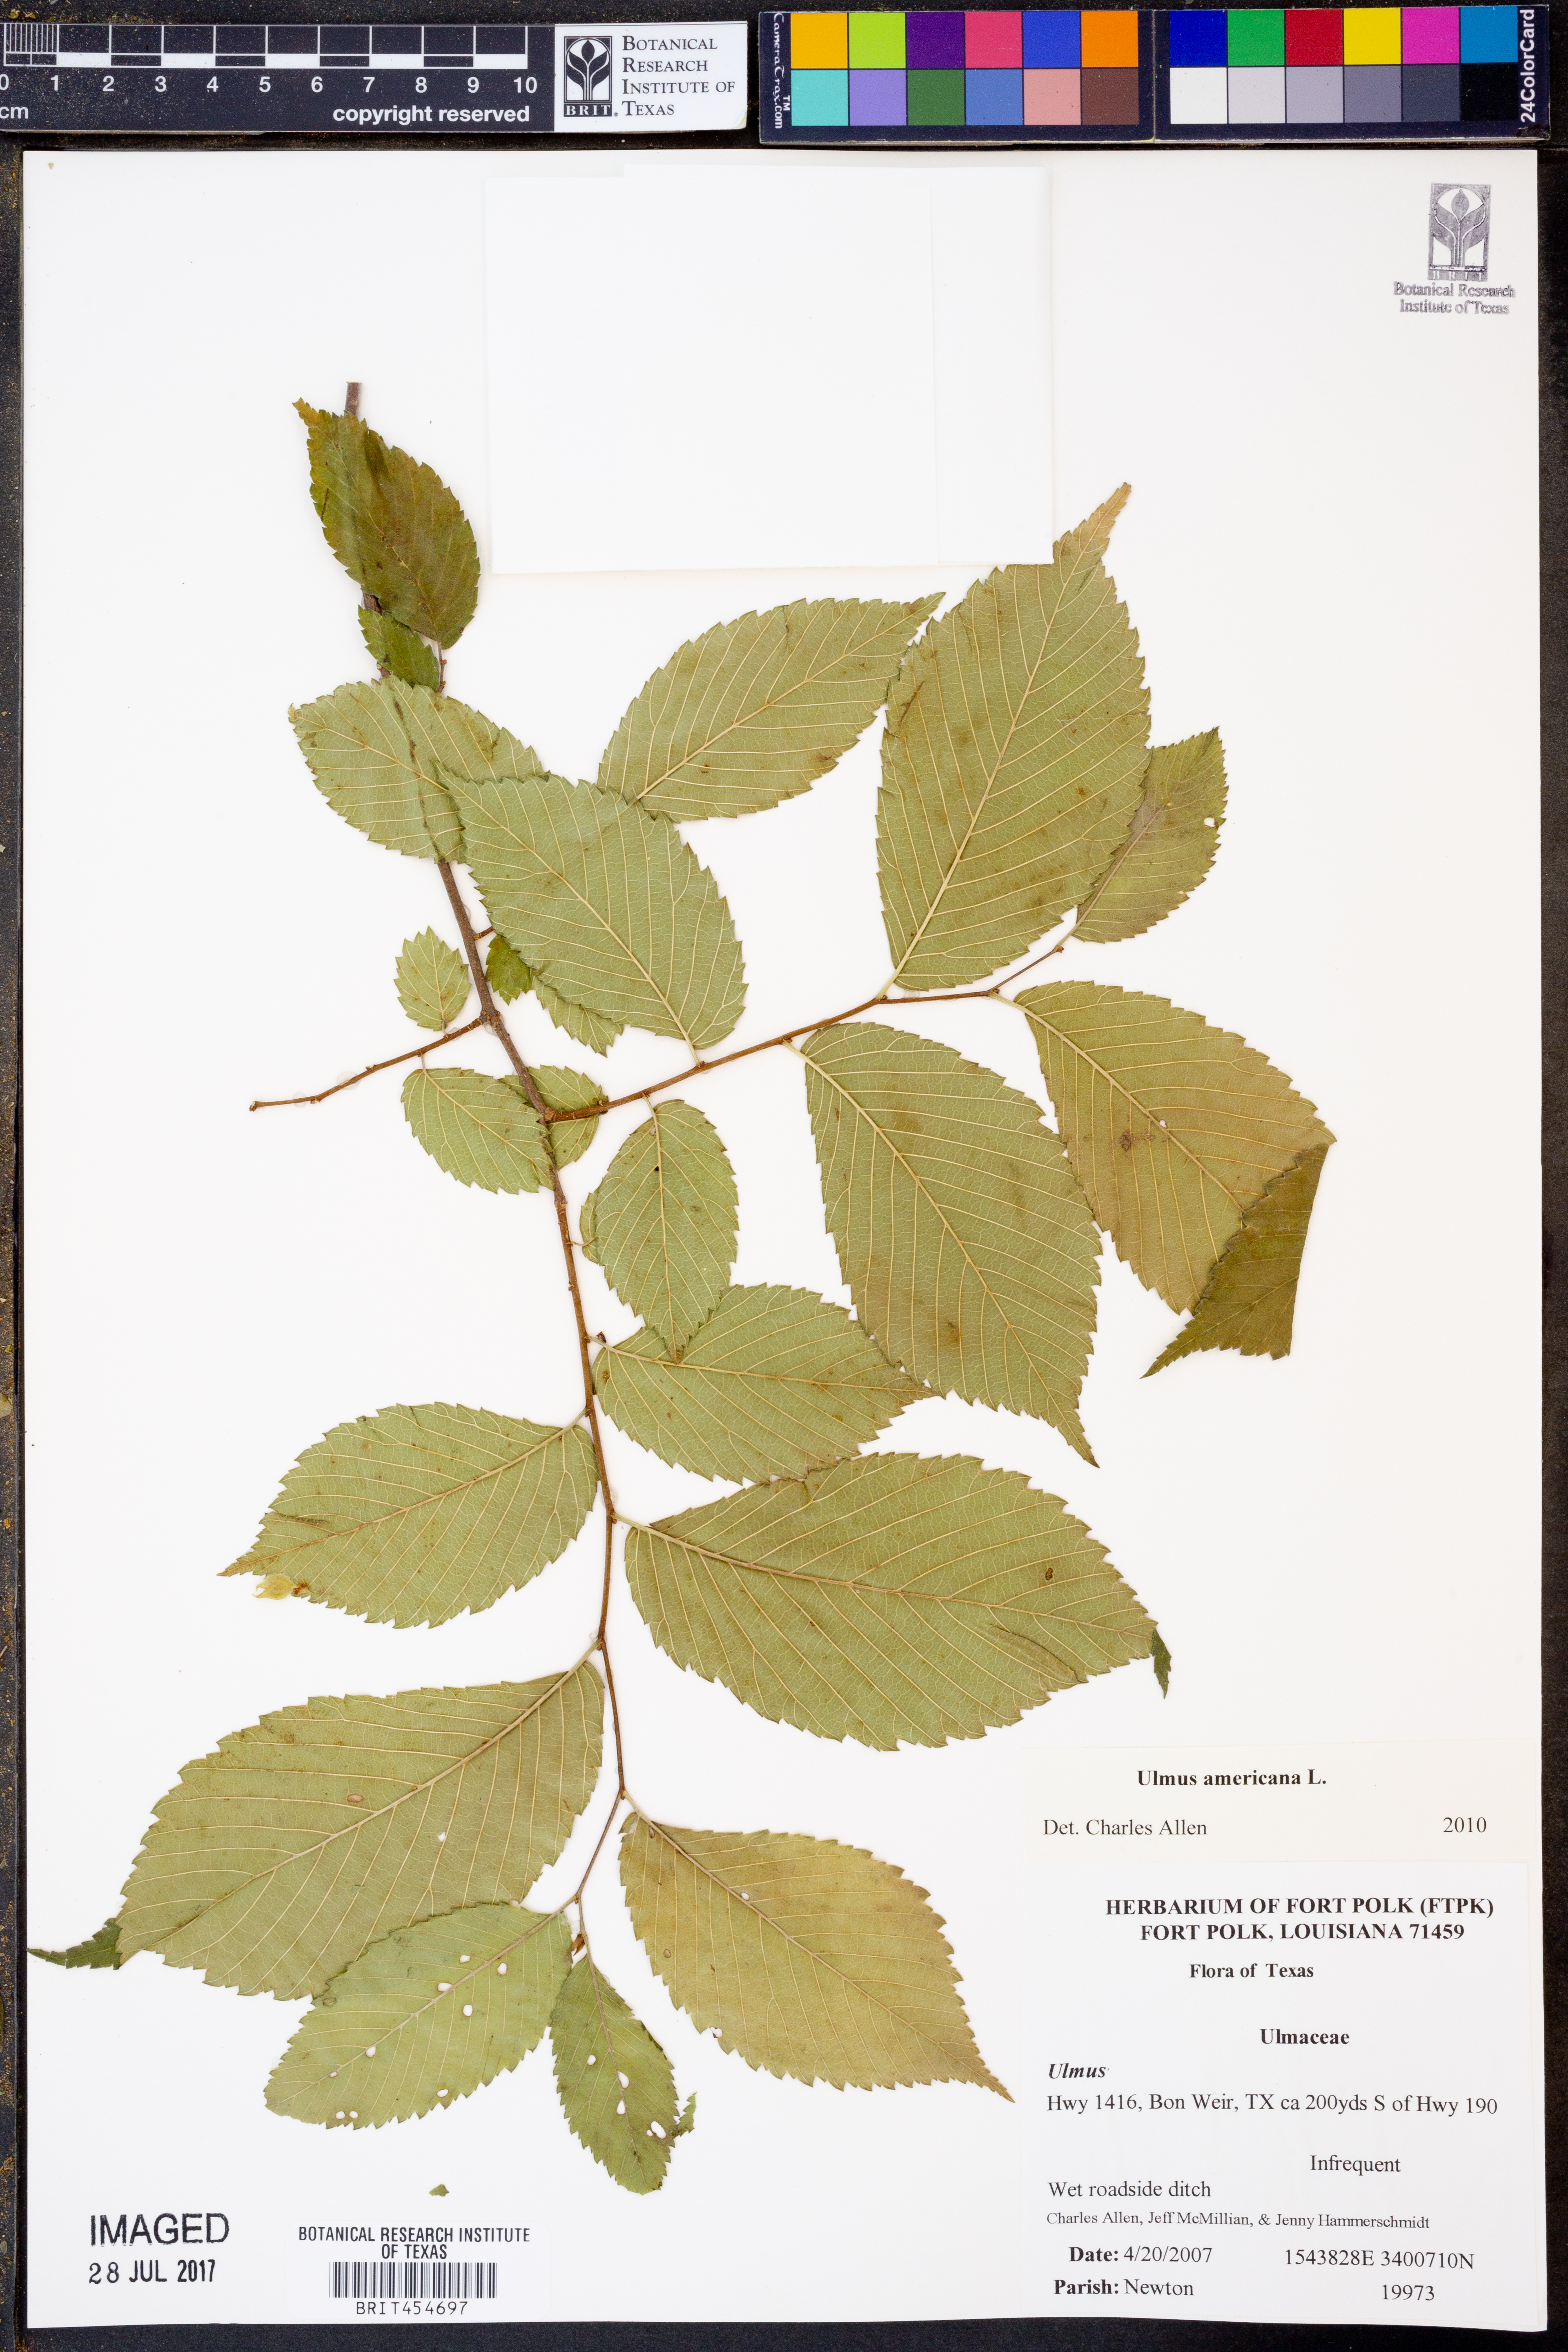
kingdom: Plantae
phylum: Tracheophyta
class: Magnoliopsida
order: Rosales
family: Ulmaceae
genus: Ulmus
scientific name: Ulmus americana
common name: American elm
